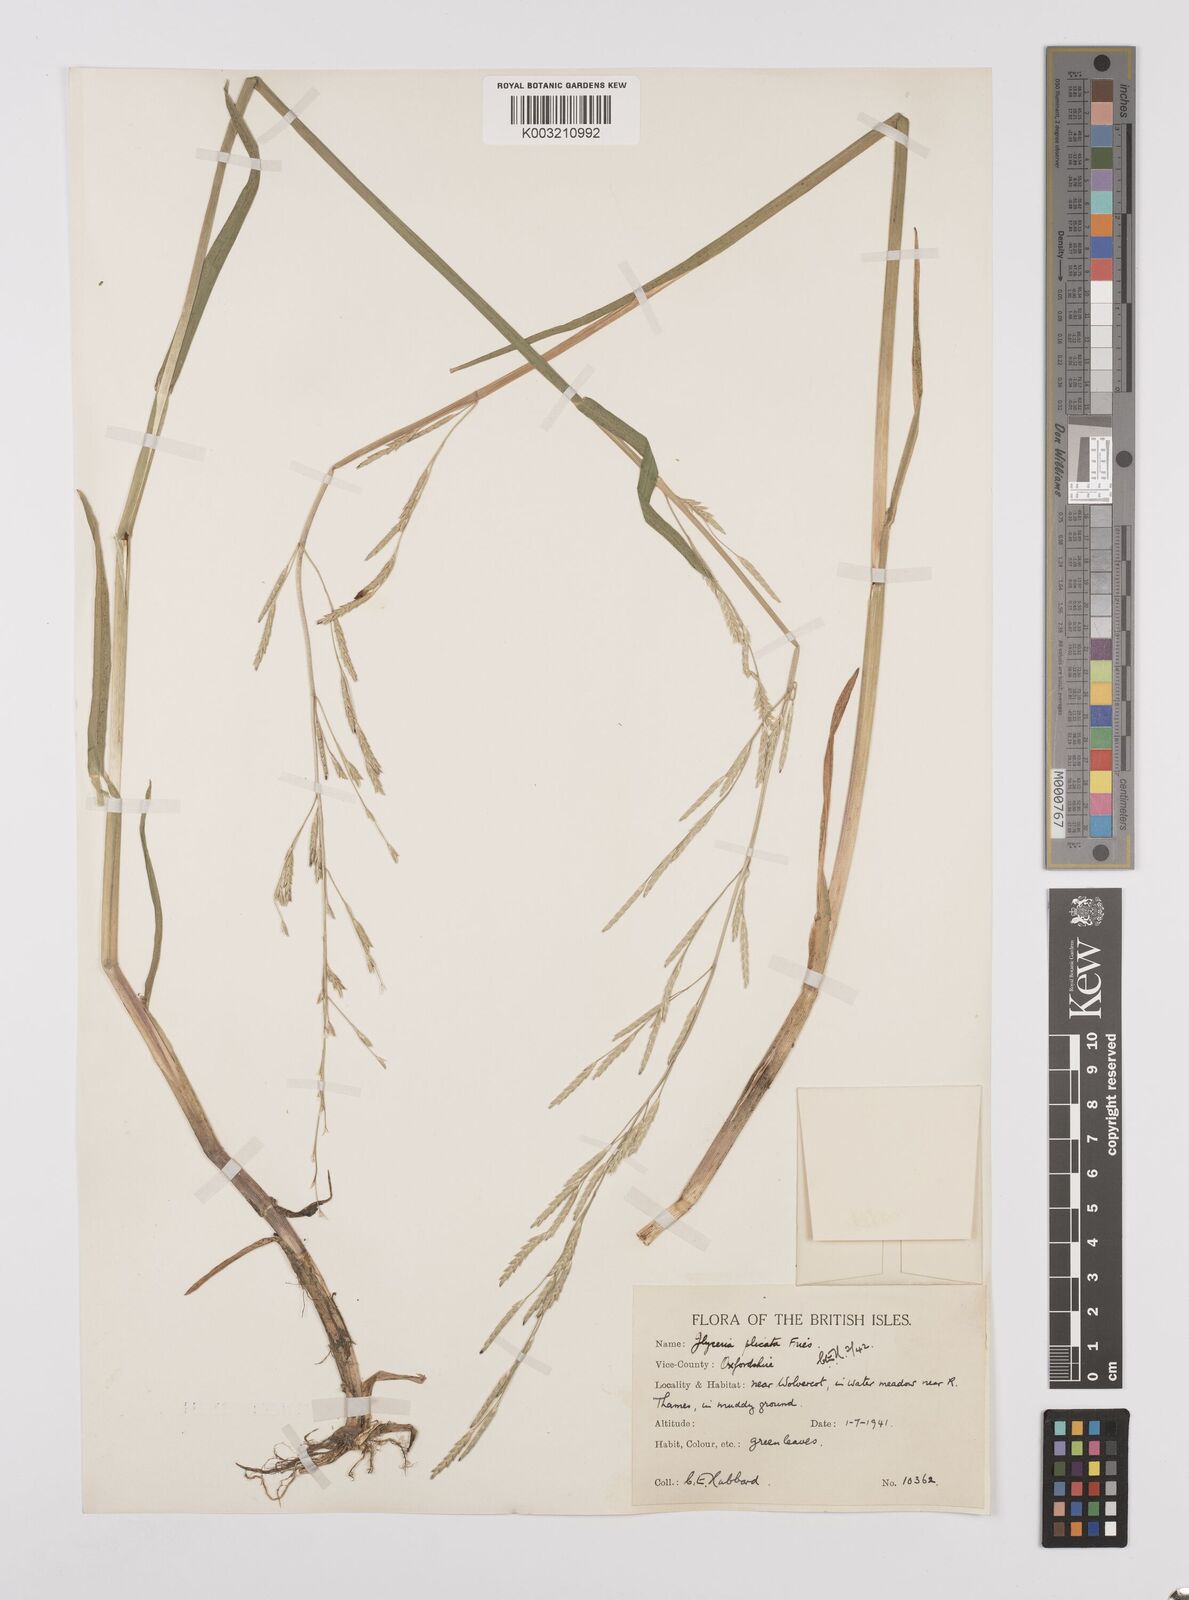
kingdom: Plantae
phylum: Tracheophyta
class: Liliopsida
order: Poales
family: Poaceae
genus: Glyceria
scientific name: Glyceria notata
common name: Plicate sweet-grass
